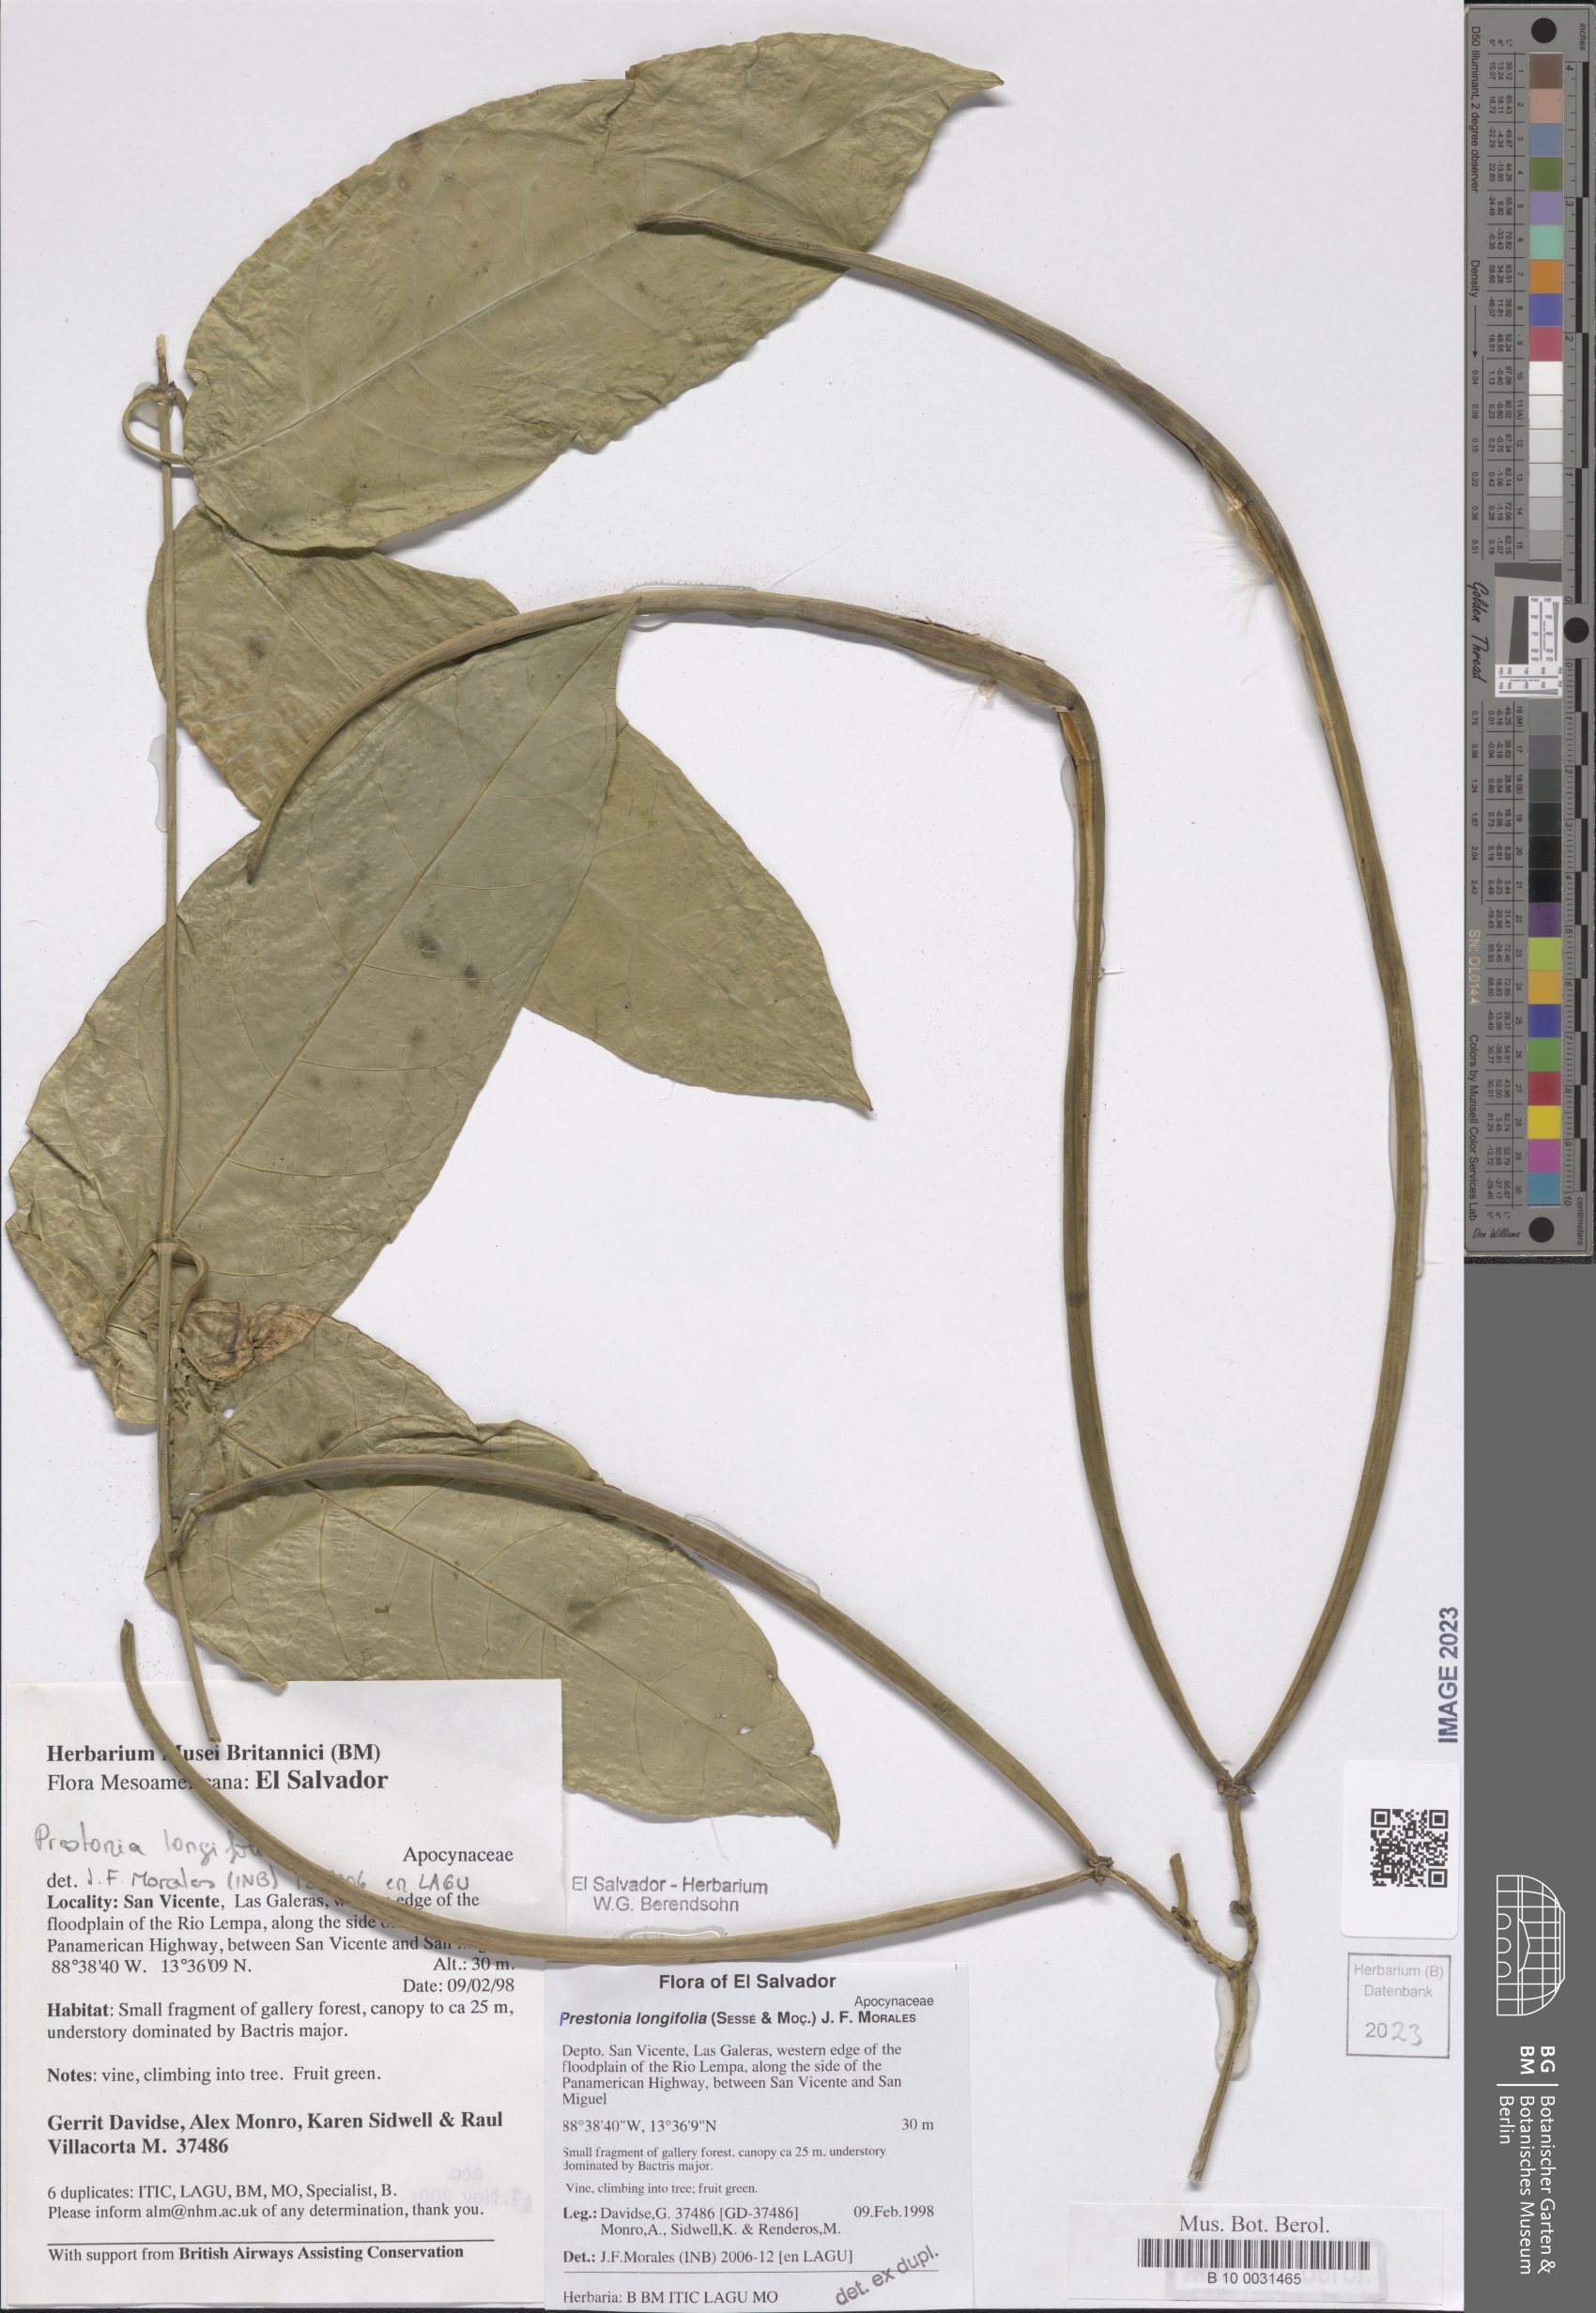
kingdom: Plantae
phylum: Tracheophyta
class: Magnoliopsida
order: Gentianales
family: Apocynaceae
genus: Prestonia
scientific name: Prestonia longifolia
